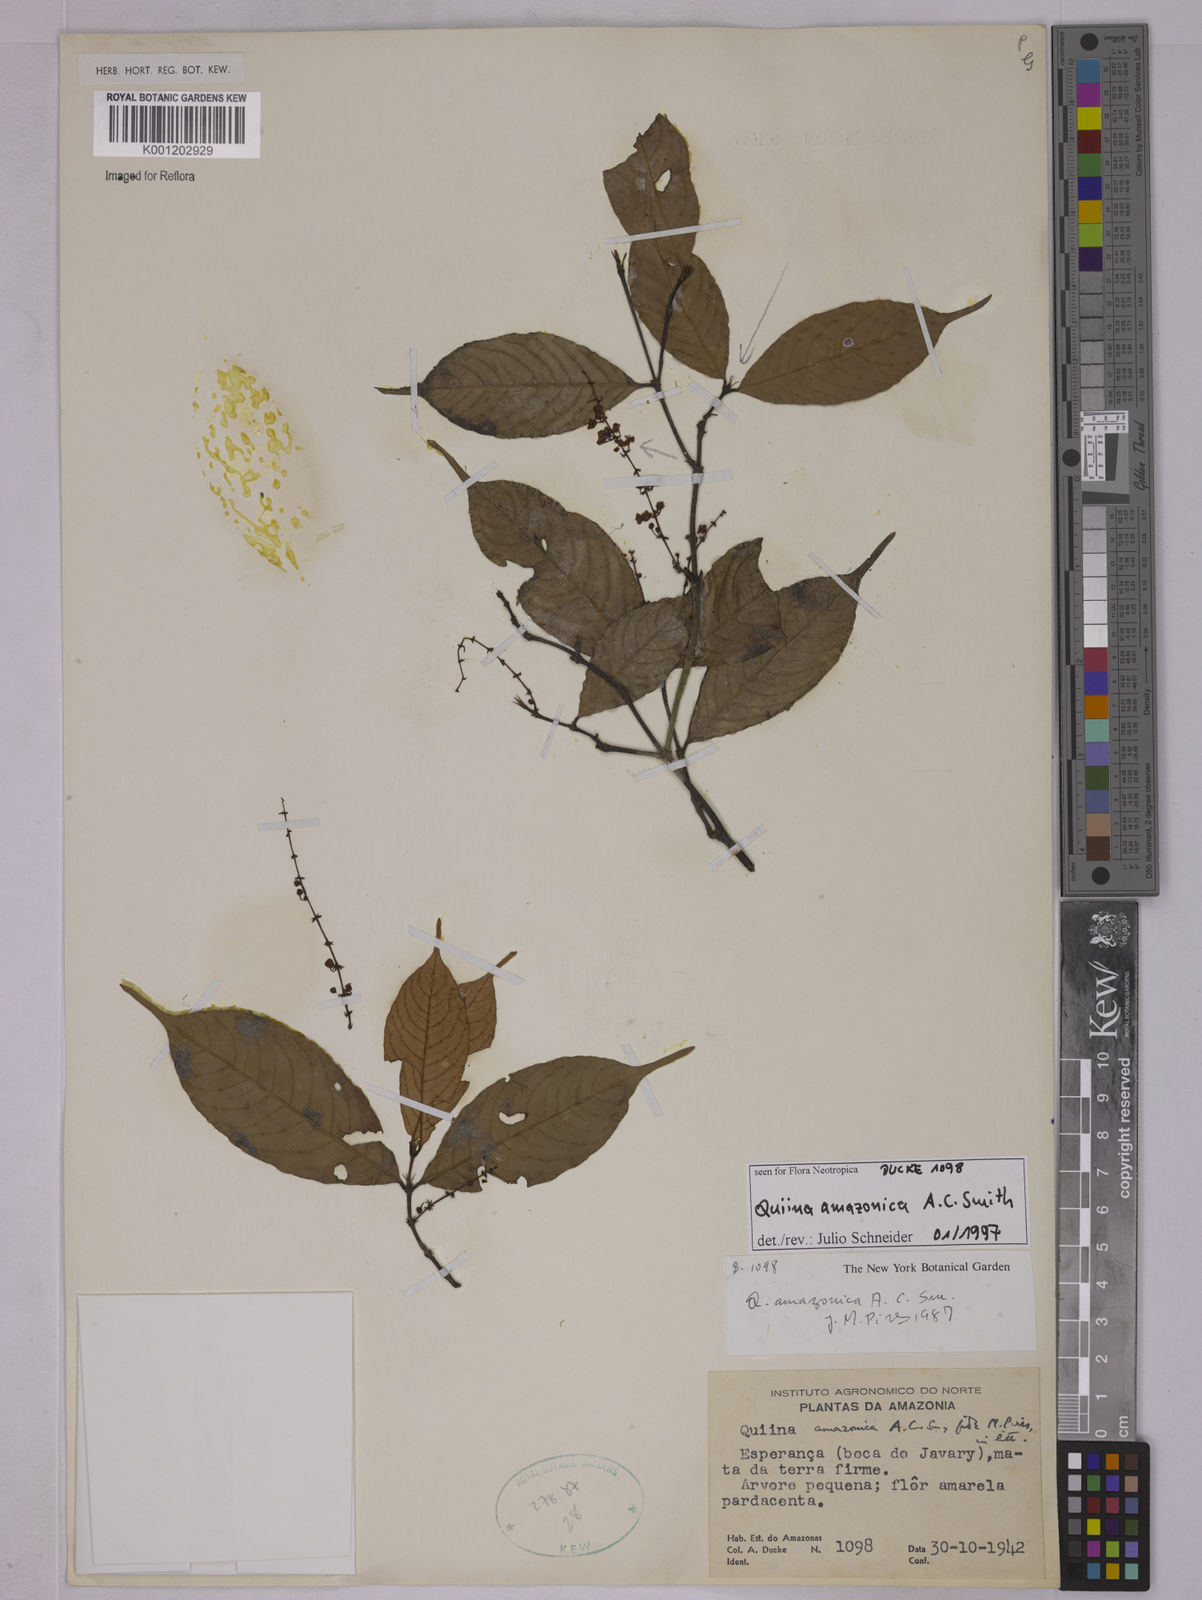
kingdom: Plantae
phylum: Tracheophyta
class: Magnoliopsida
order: Malpighiales
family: Quiinaceae
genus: Quiina
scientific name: Quiina amazonica
